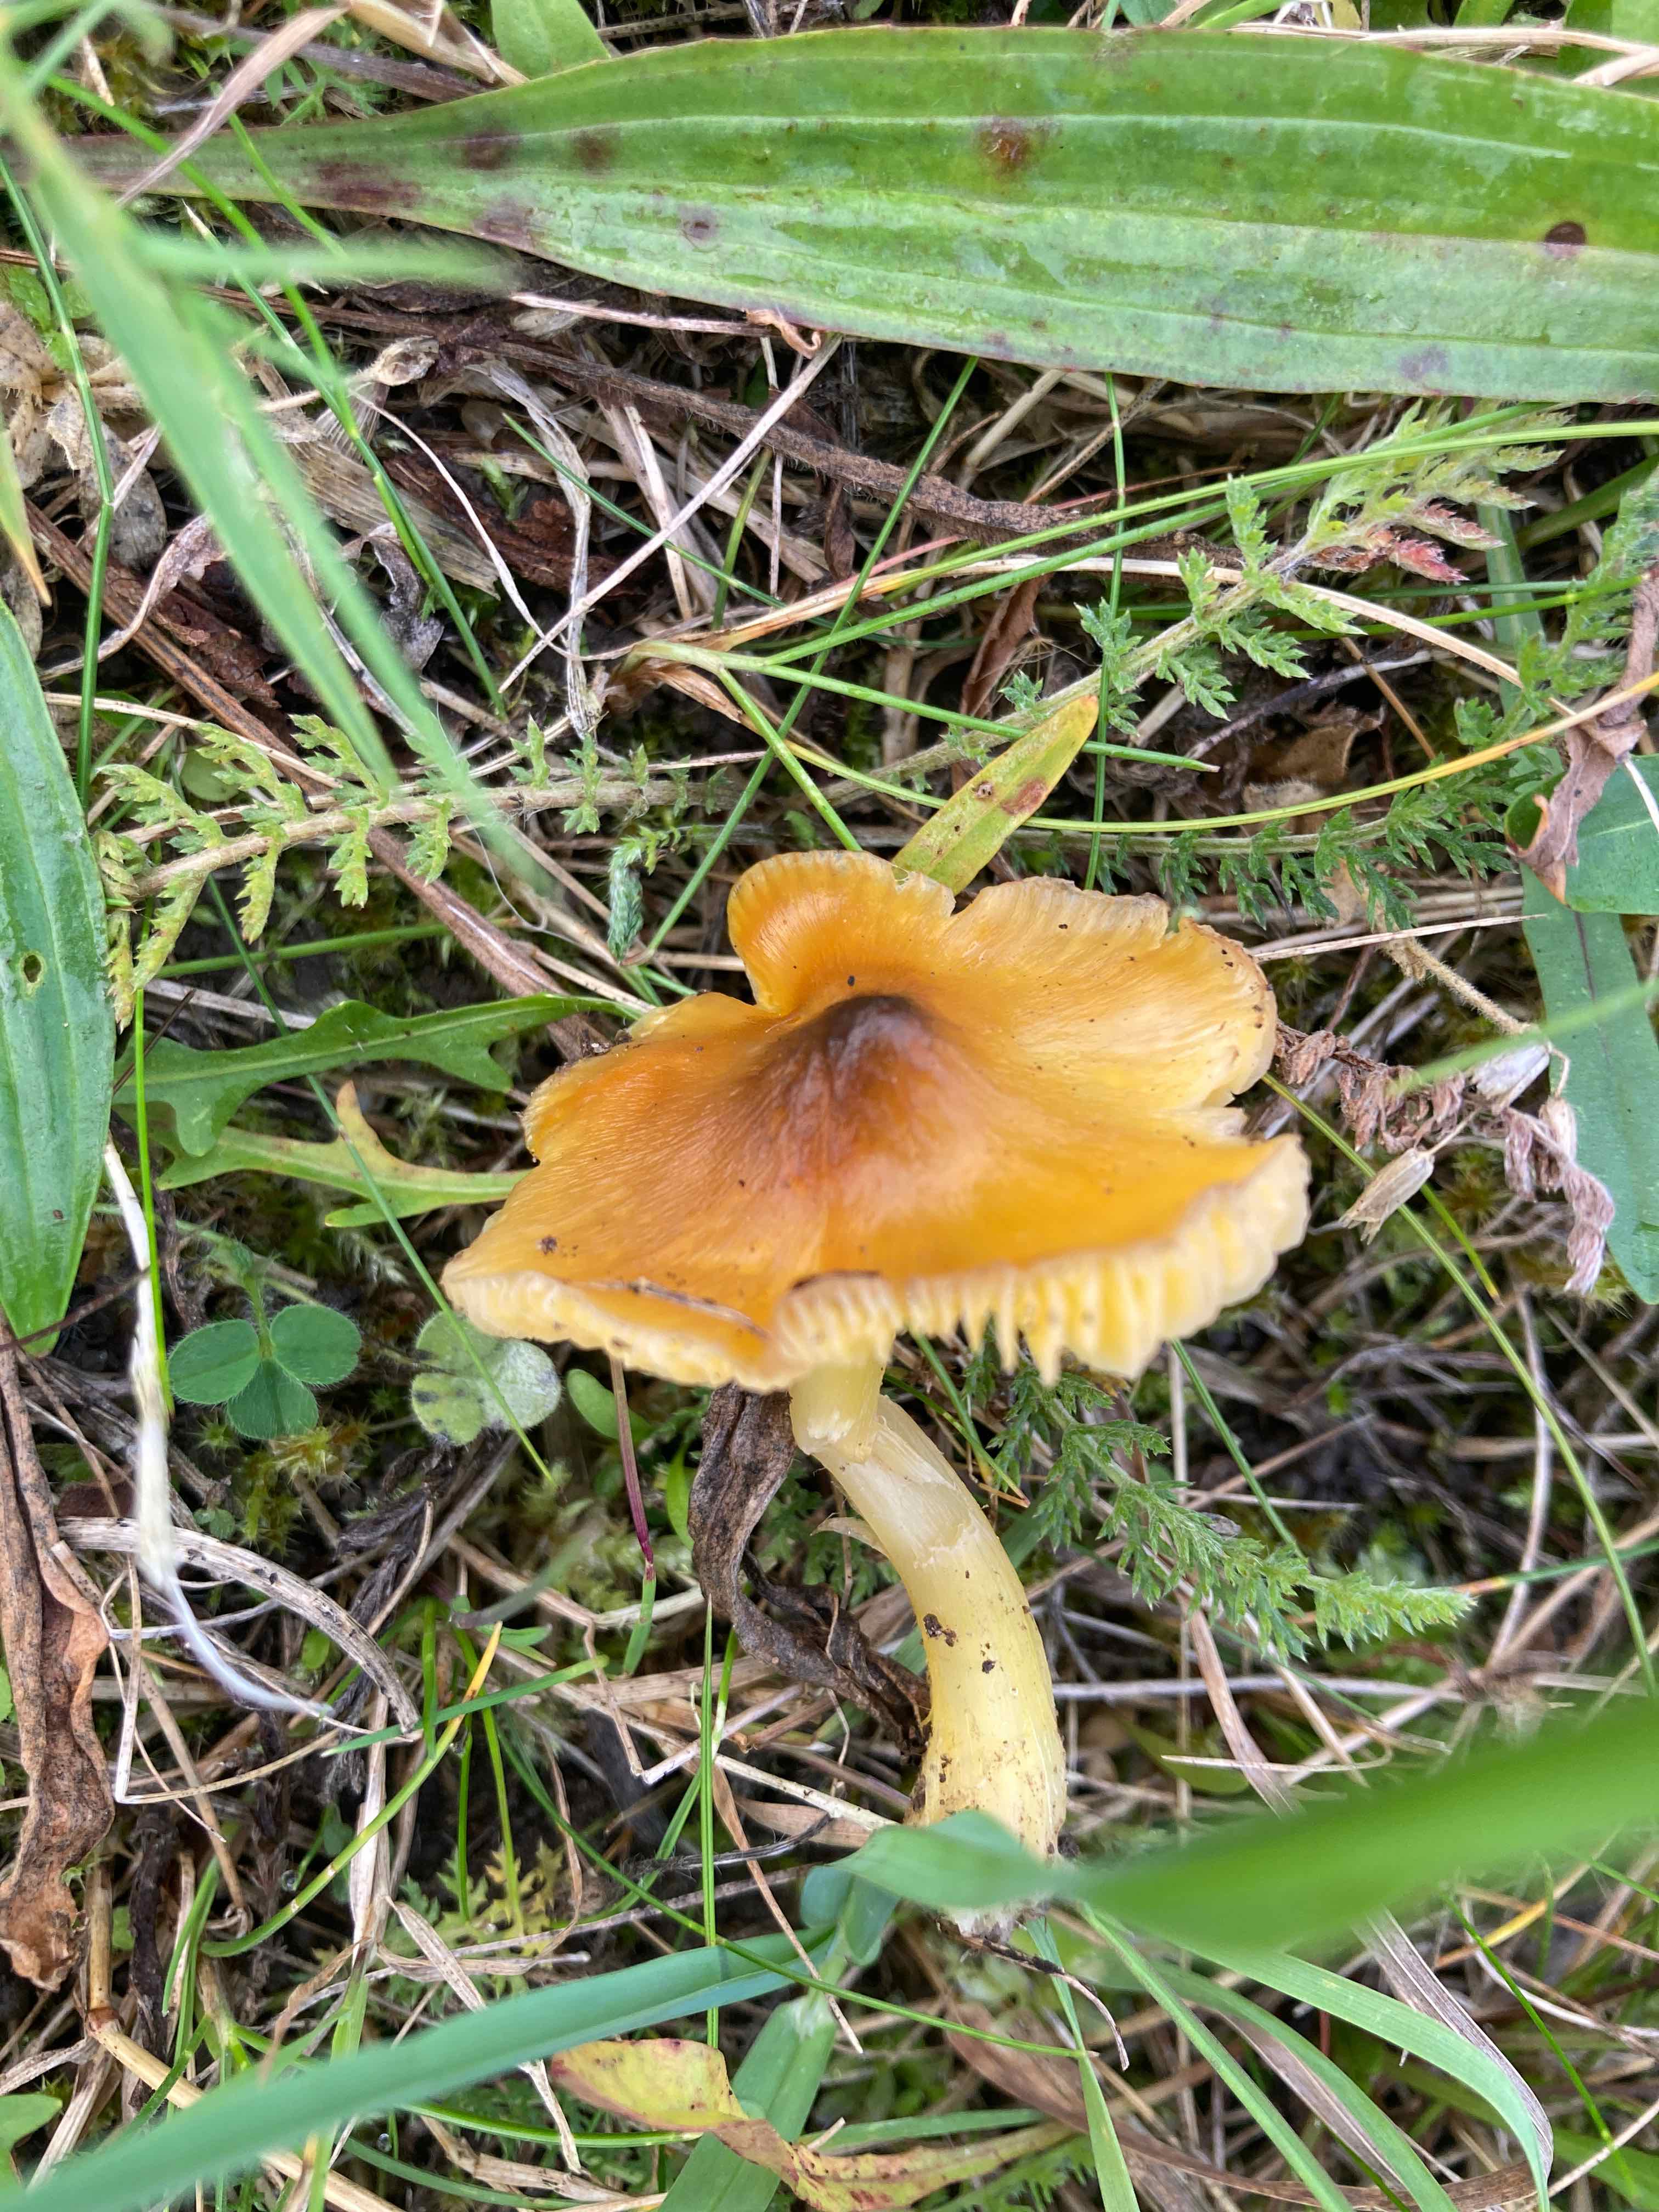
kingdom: Fungi
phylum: Basidiomycota
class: Agaricomycetes
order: Agaricales
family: Hygrophoraceae
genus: Hygrocybe
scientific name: Hygrocybe acutoconica
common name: spidspuklet vokshat
